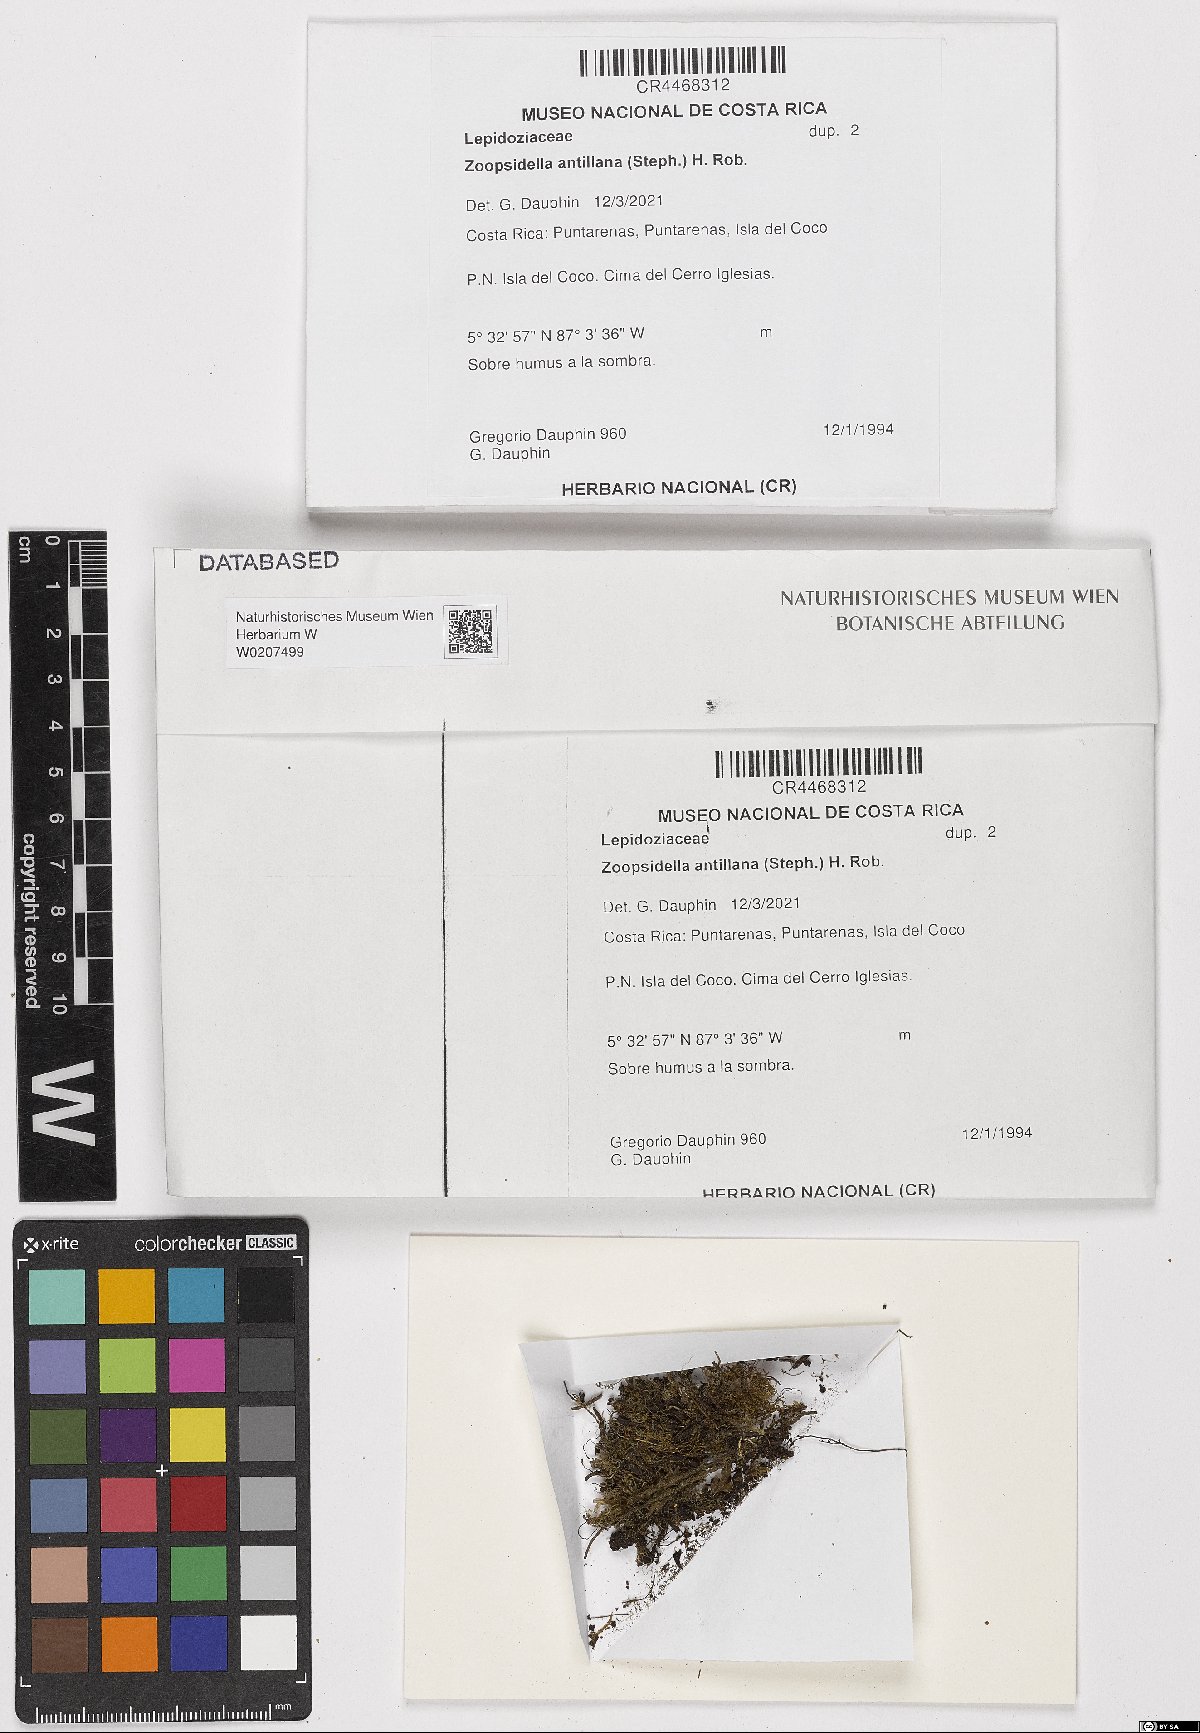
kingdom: Plantae
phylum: Marchantiophyta
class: Jungermanniopsida
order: Jungermanniales
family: Lepidoziaceae
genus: Zoopsidella
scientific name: Zoopsidella antillana
